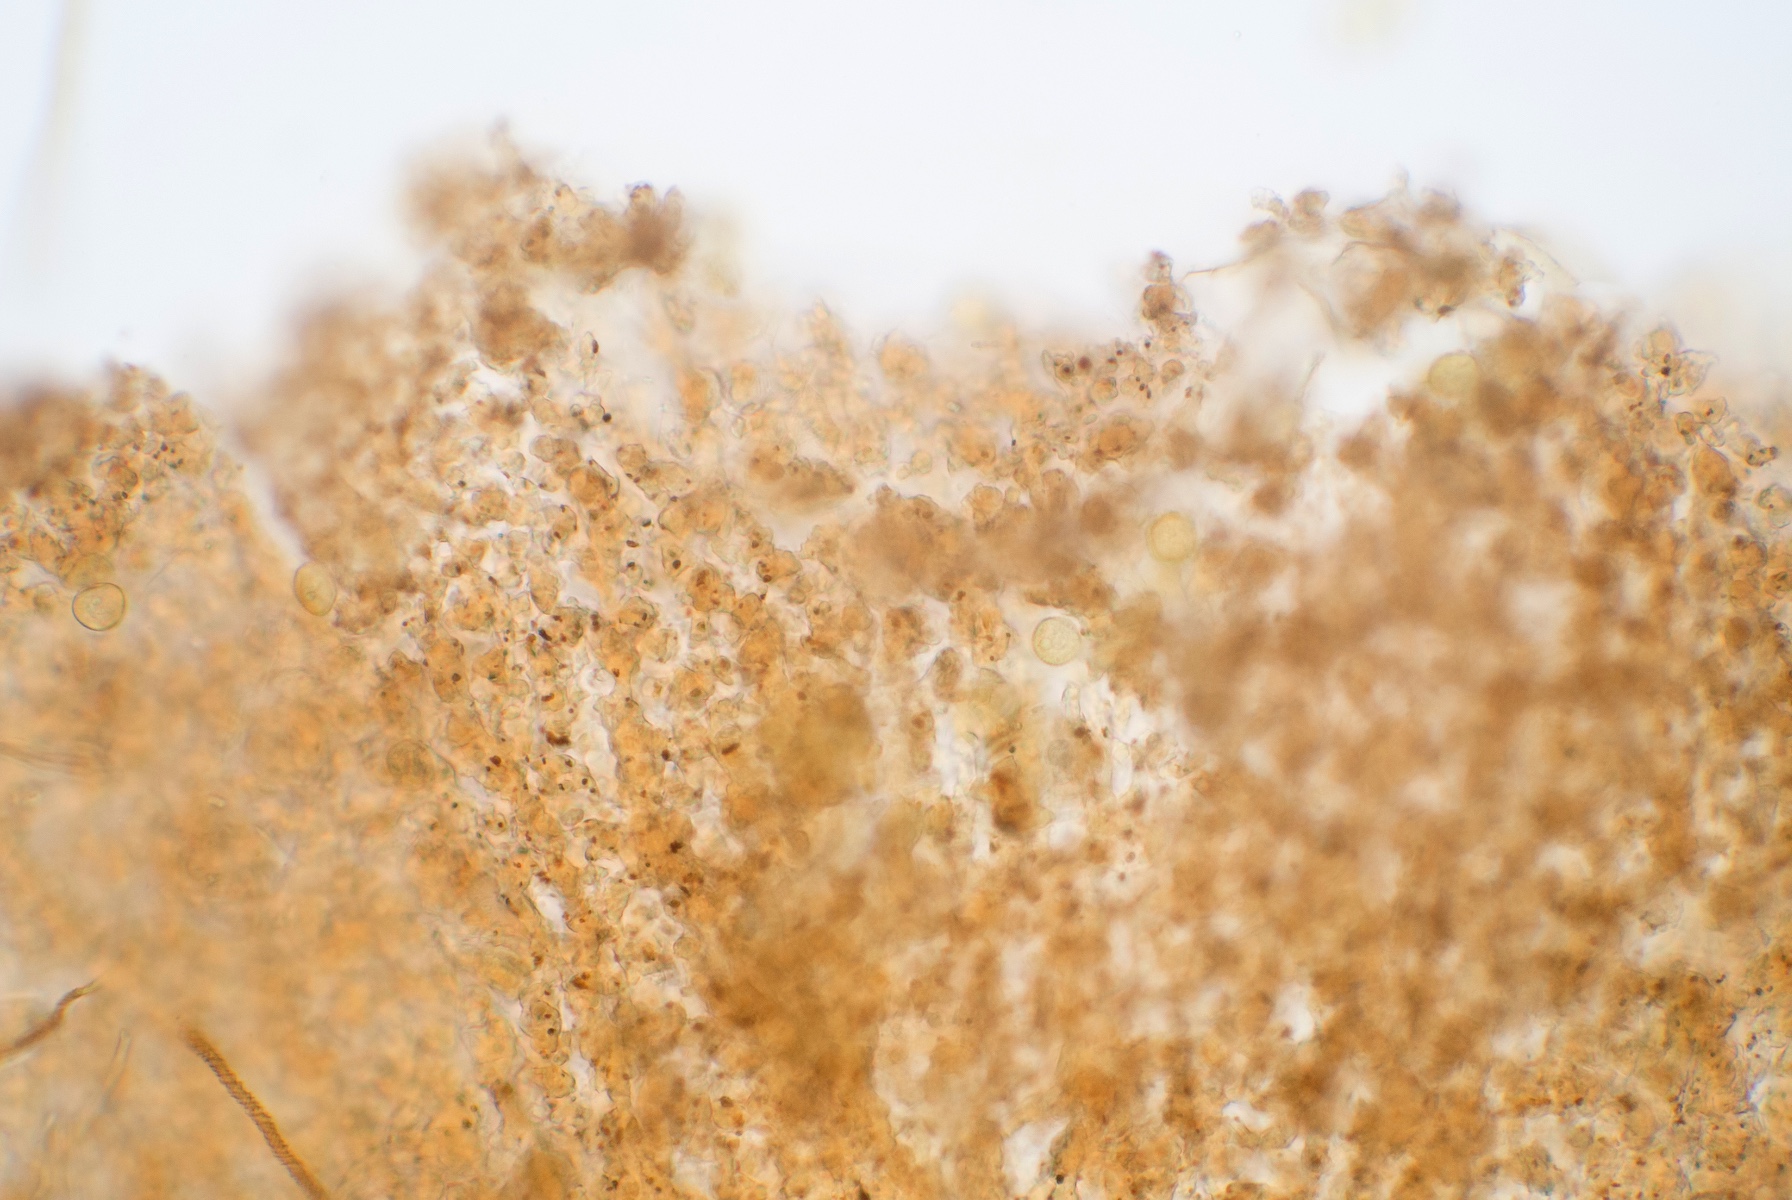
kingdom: Protozoa
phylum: Mycetozoa
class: Myxomycetes
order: Trichiales
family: Trichiaceae
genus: Trichia
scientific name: Trichia contorta
